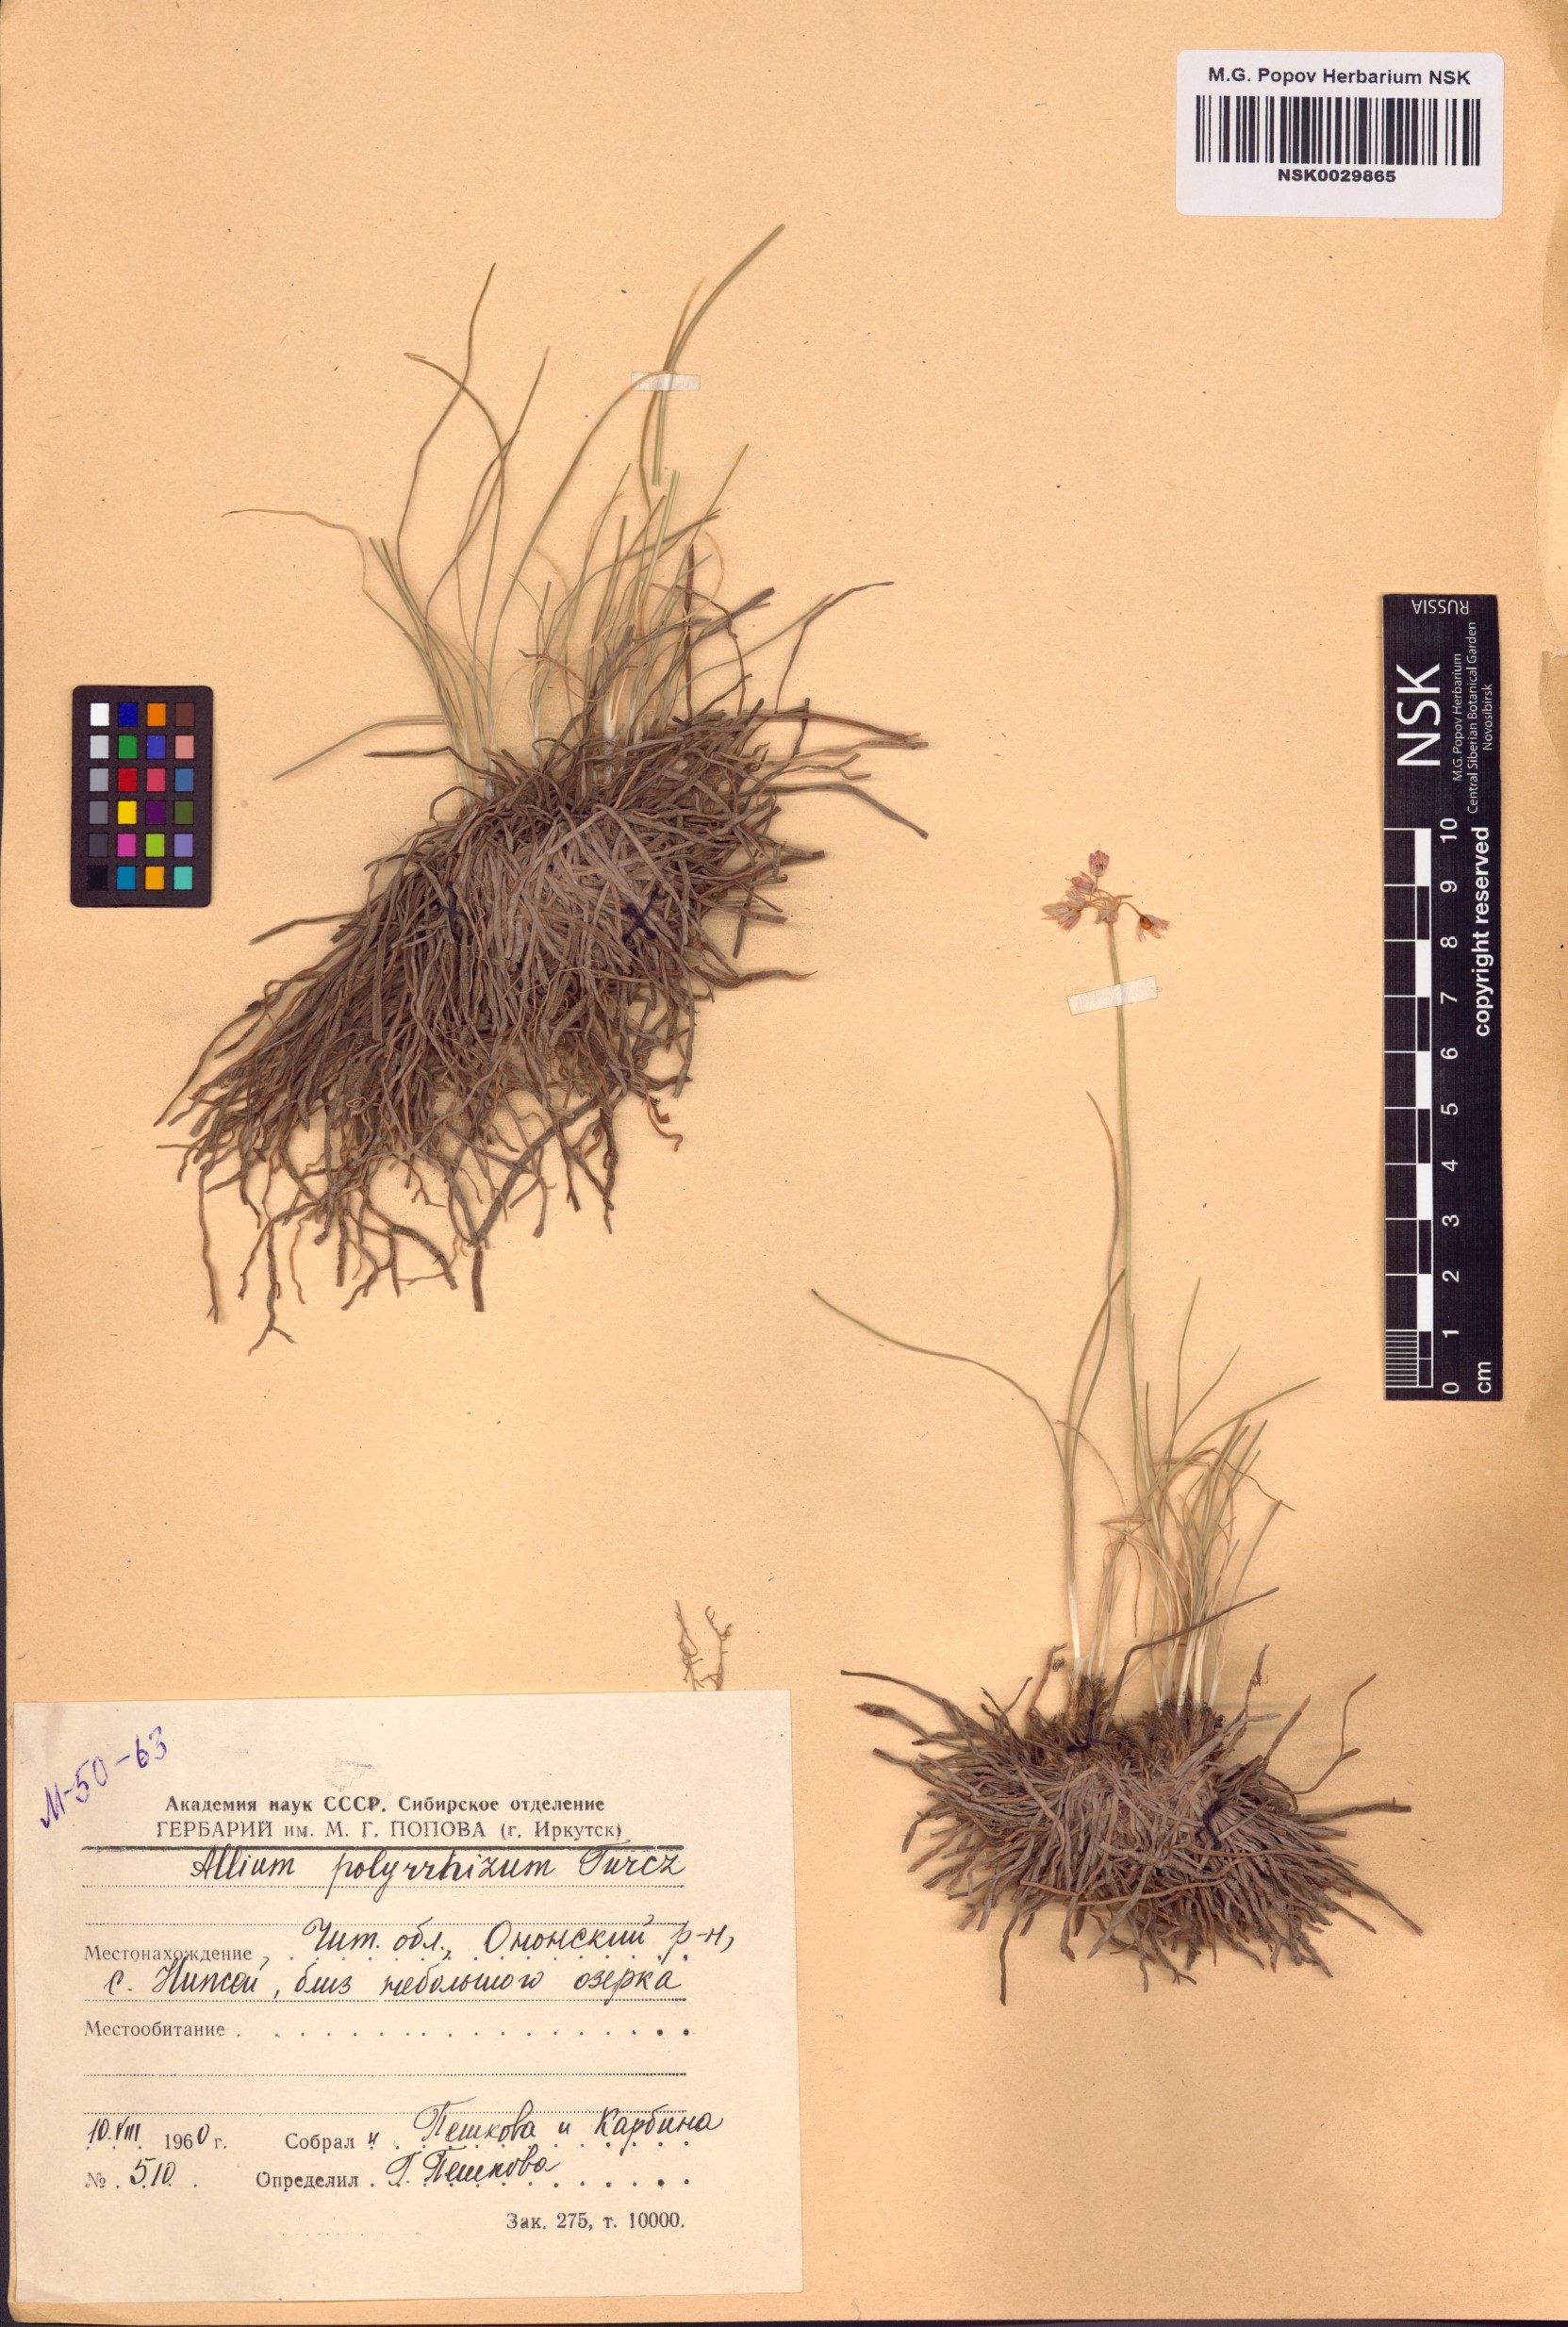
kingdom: Plantae
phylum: Tracheophyta
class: Liliopsida
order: Asparagales
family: Amaryllidaceae
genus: Allium
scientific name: Allium polyrhizum
